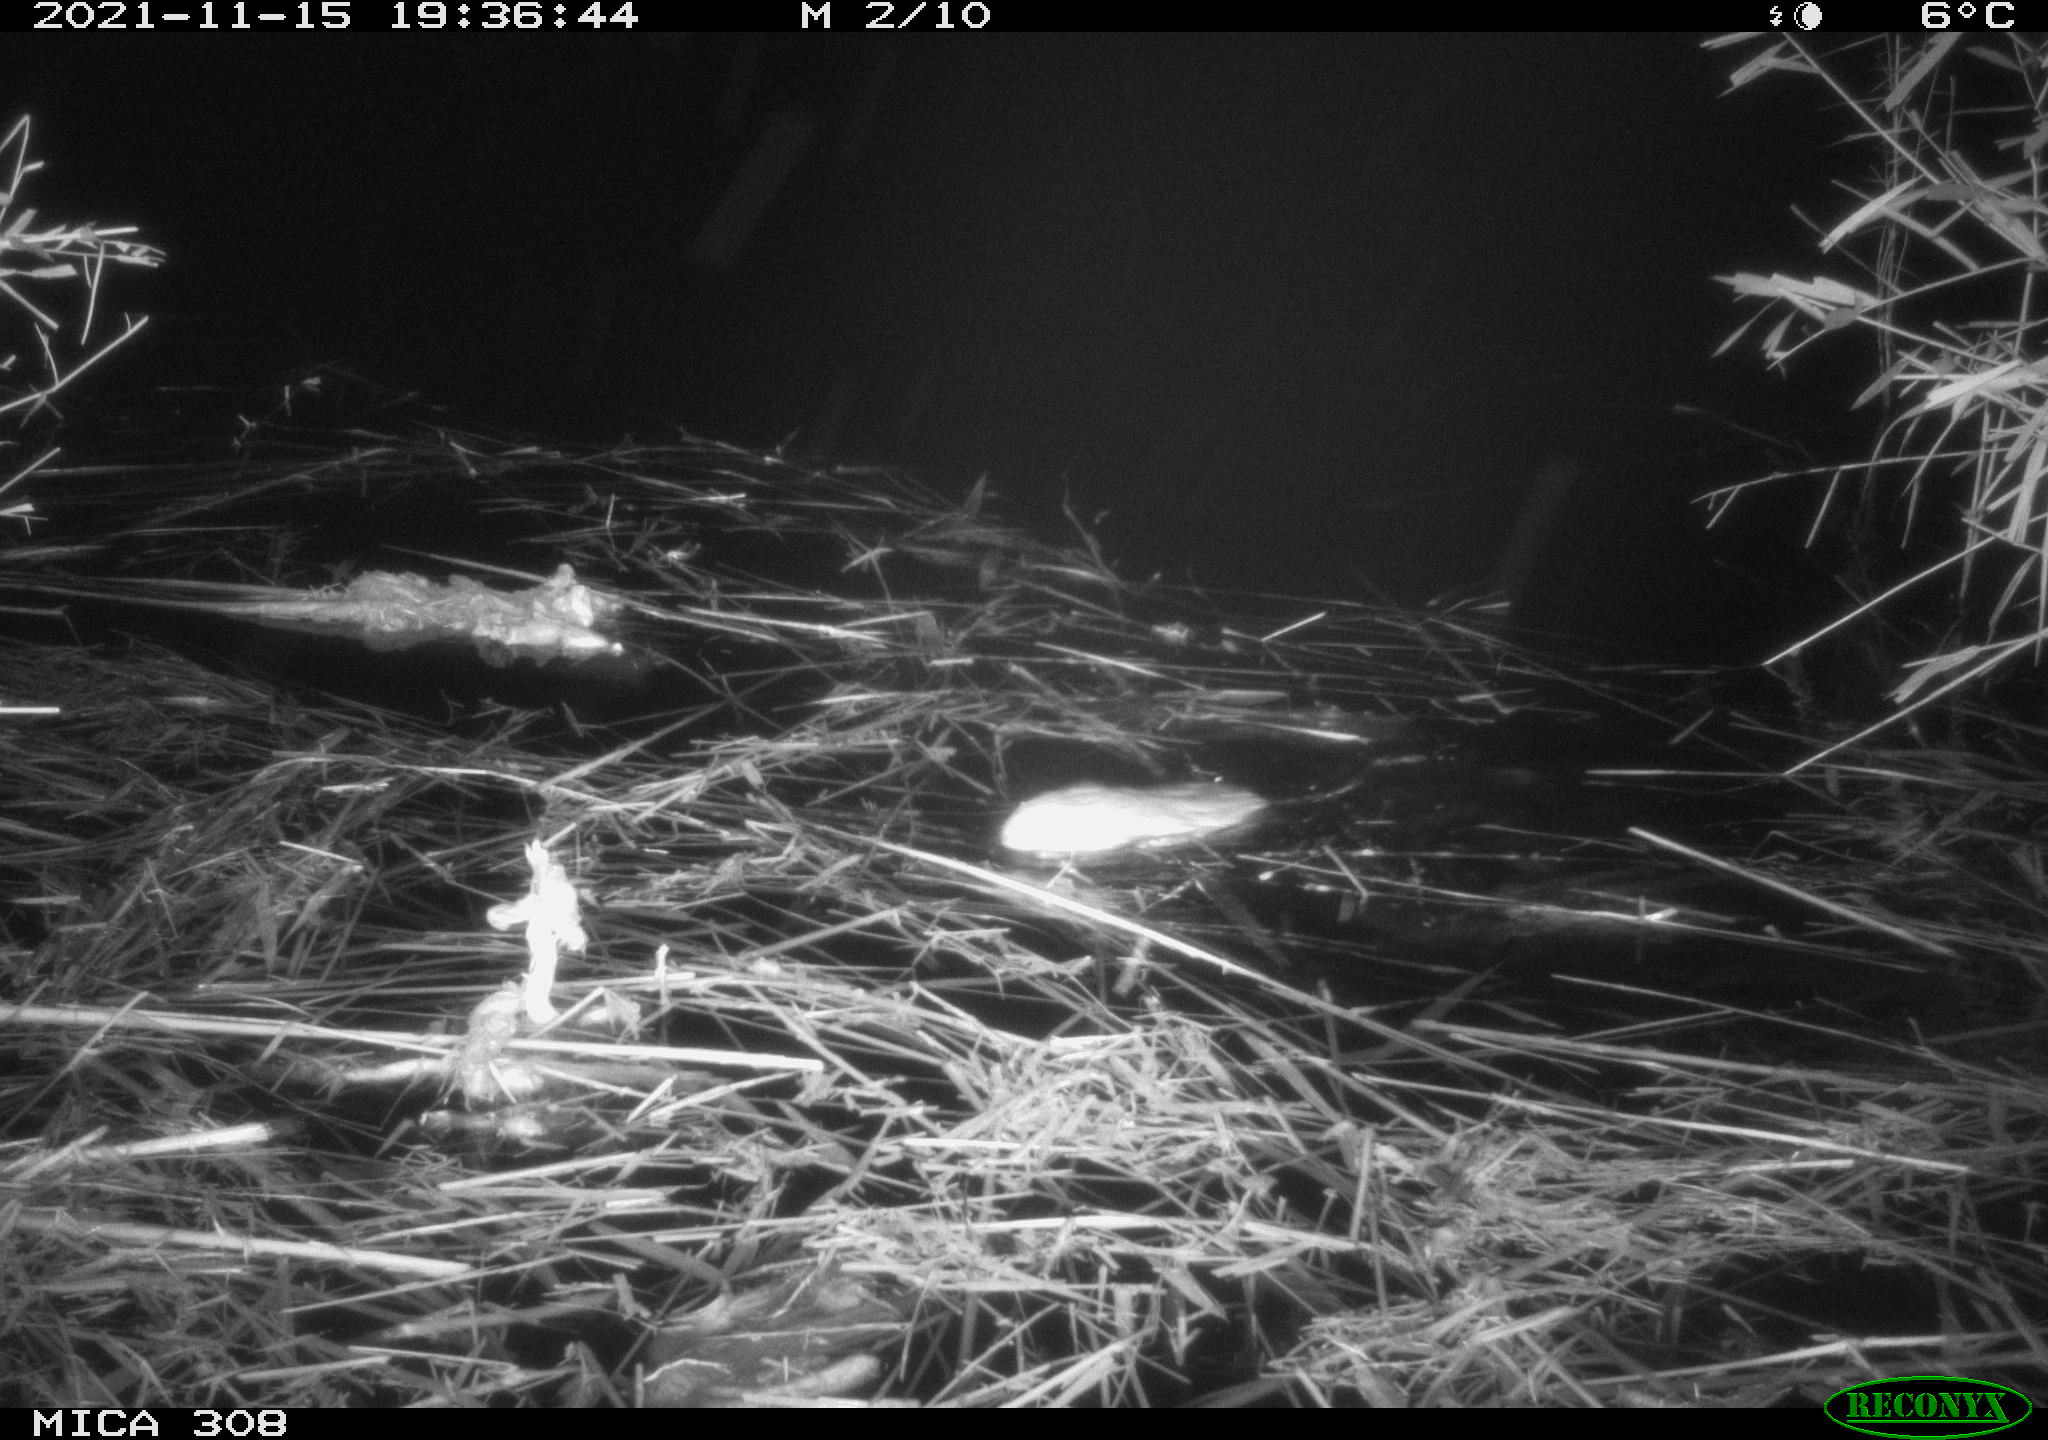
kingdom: Animalia
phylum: Chordata
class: Mammalia
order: Rodentia
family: Cricetidae
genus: Ondatra
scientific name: Ondatra zibethicus
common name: Muskrat
